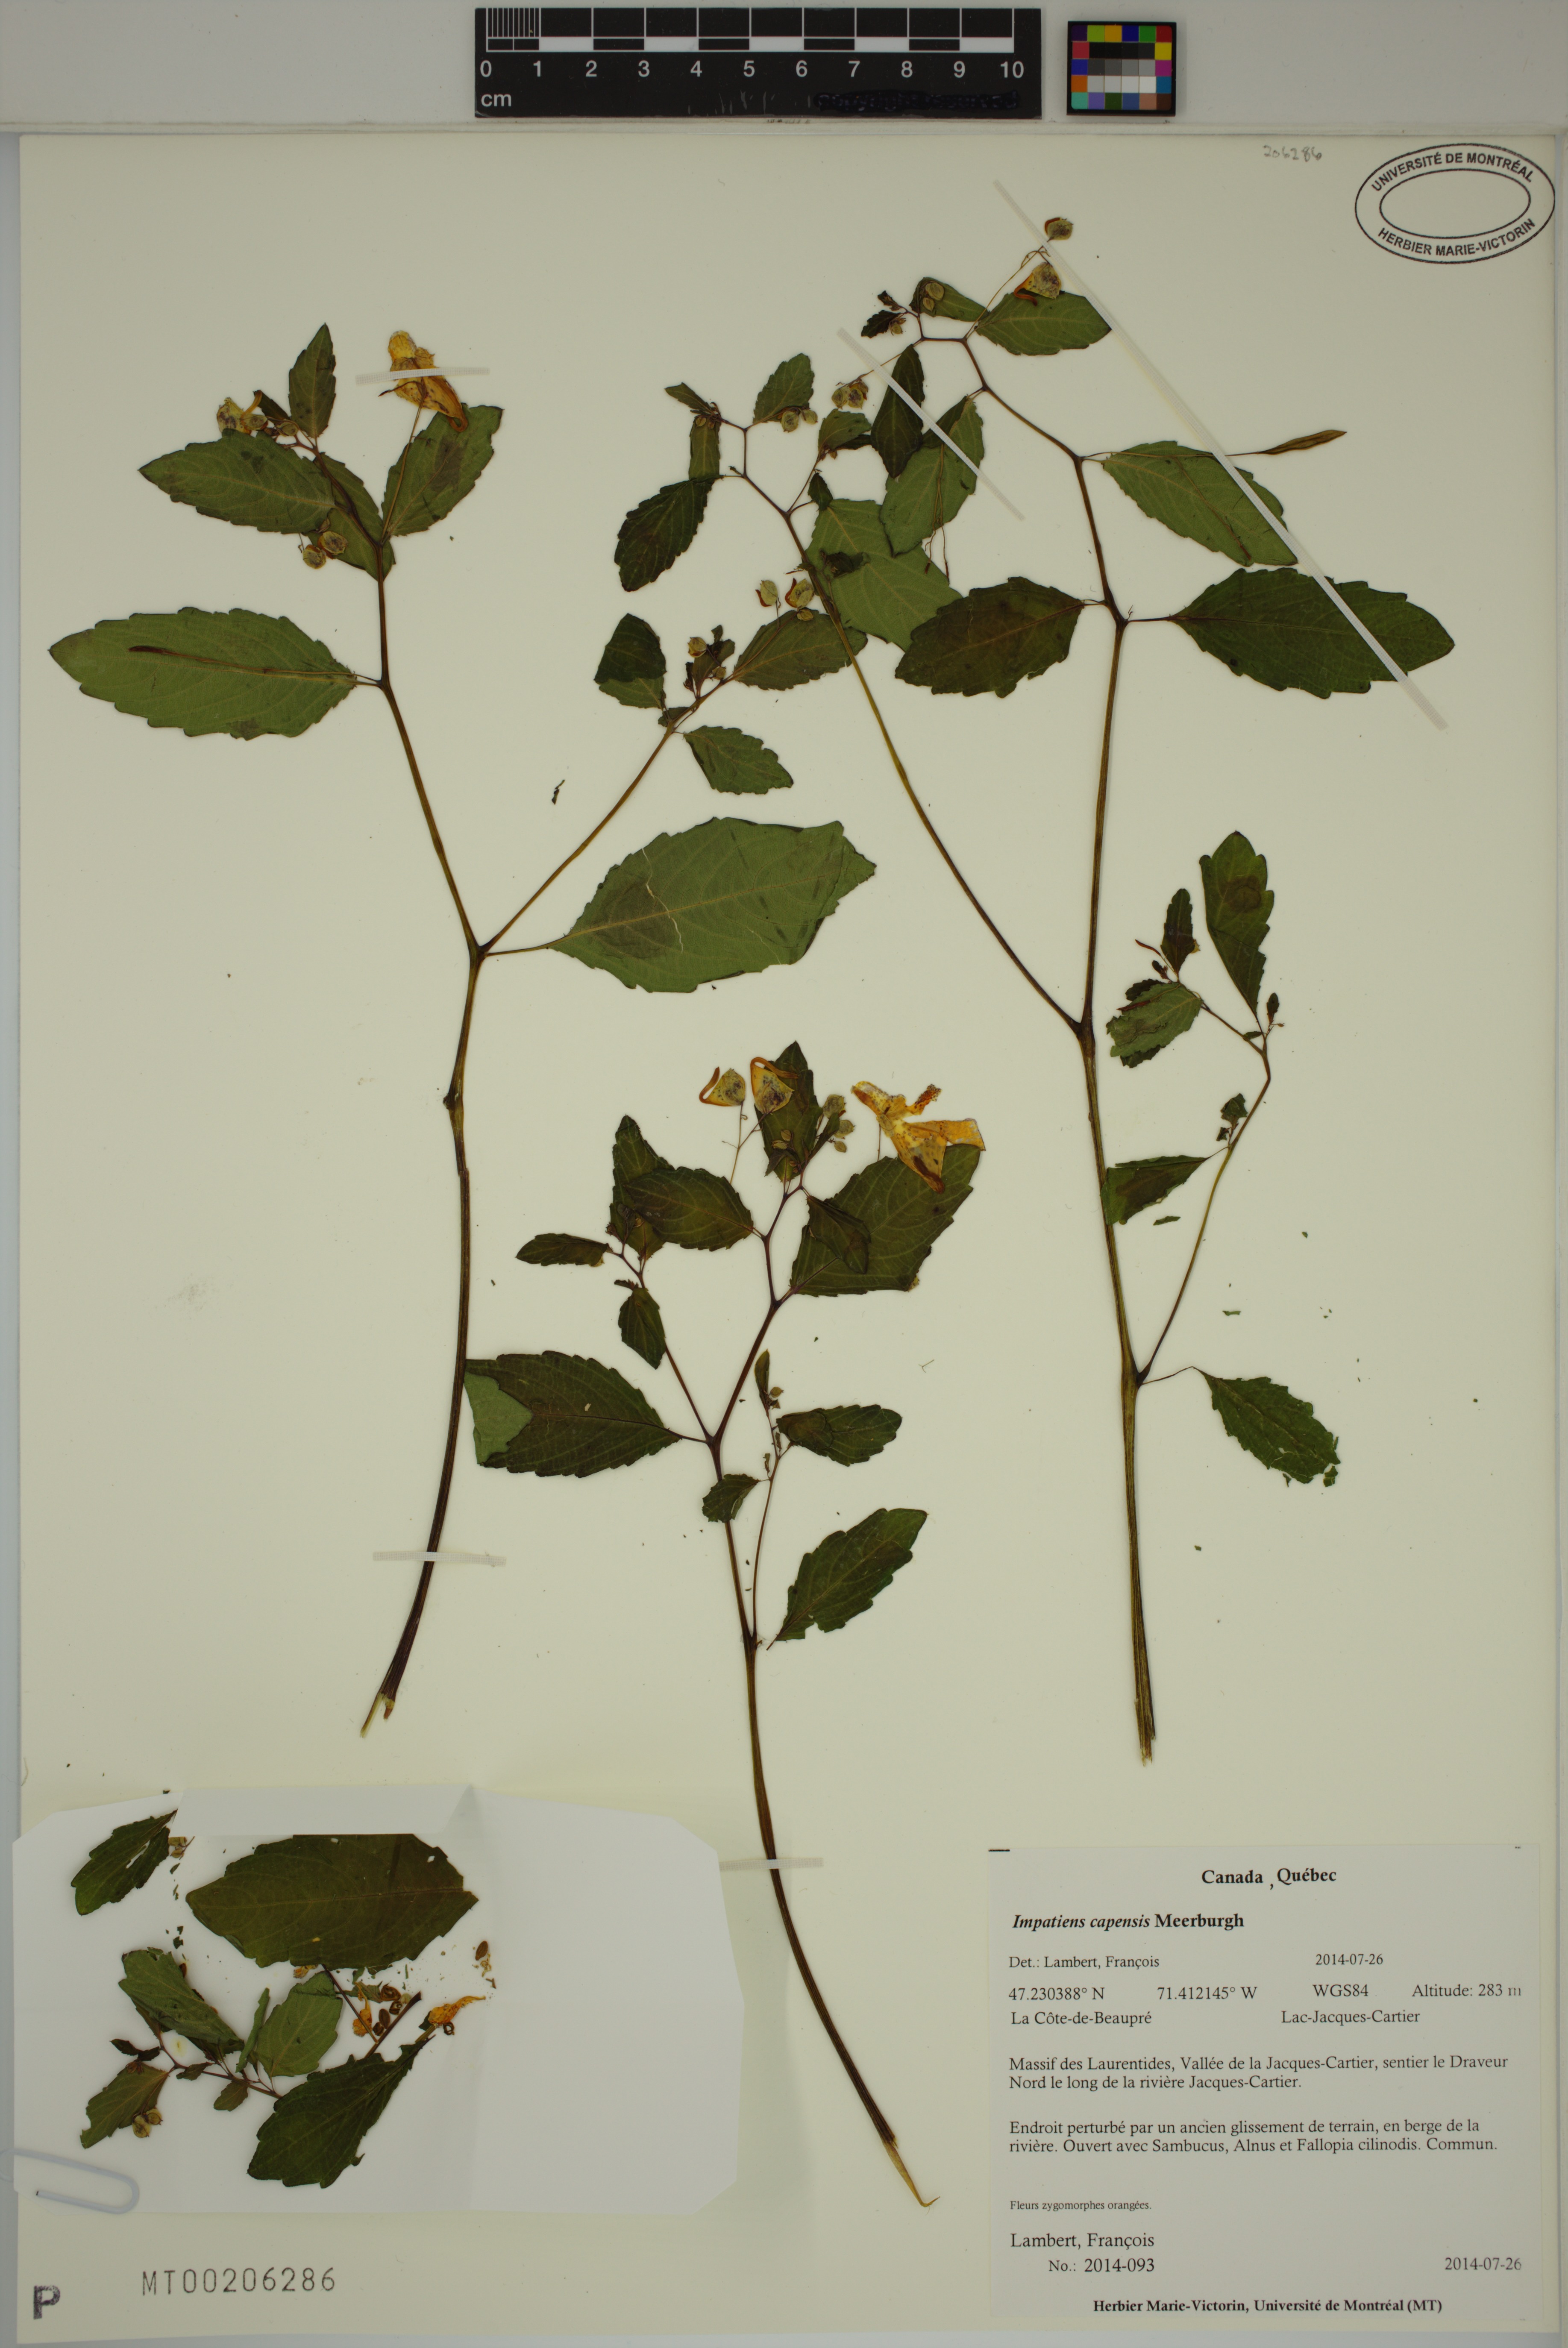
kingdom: Plantae
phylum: Tracheophyta
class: Magnoliopsida
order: Ericales
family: Balsaminaceae
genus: Impatiens
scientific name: Impatiens capensis
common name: Orange balsam
